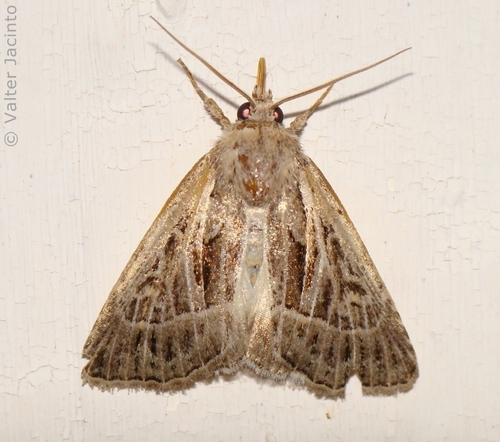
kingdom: Animalia
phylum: Arthropoda
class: Insecta
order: Lepidoptera
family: Noctuidae
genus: Thalpophila
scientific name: Thalpophila vitalba
